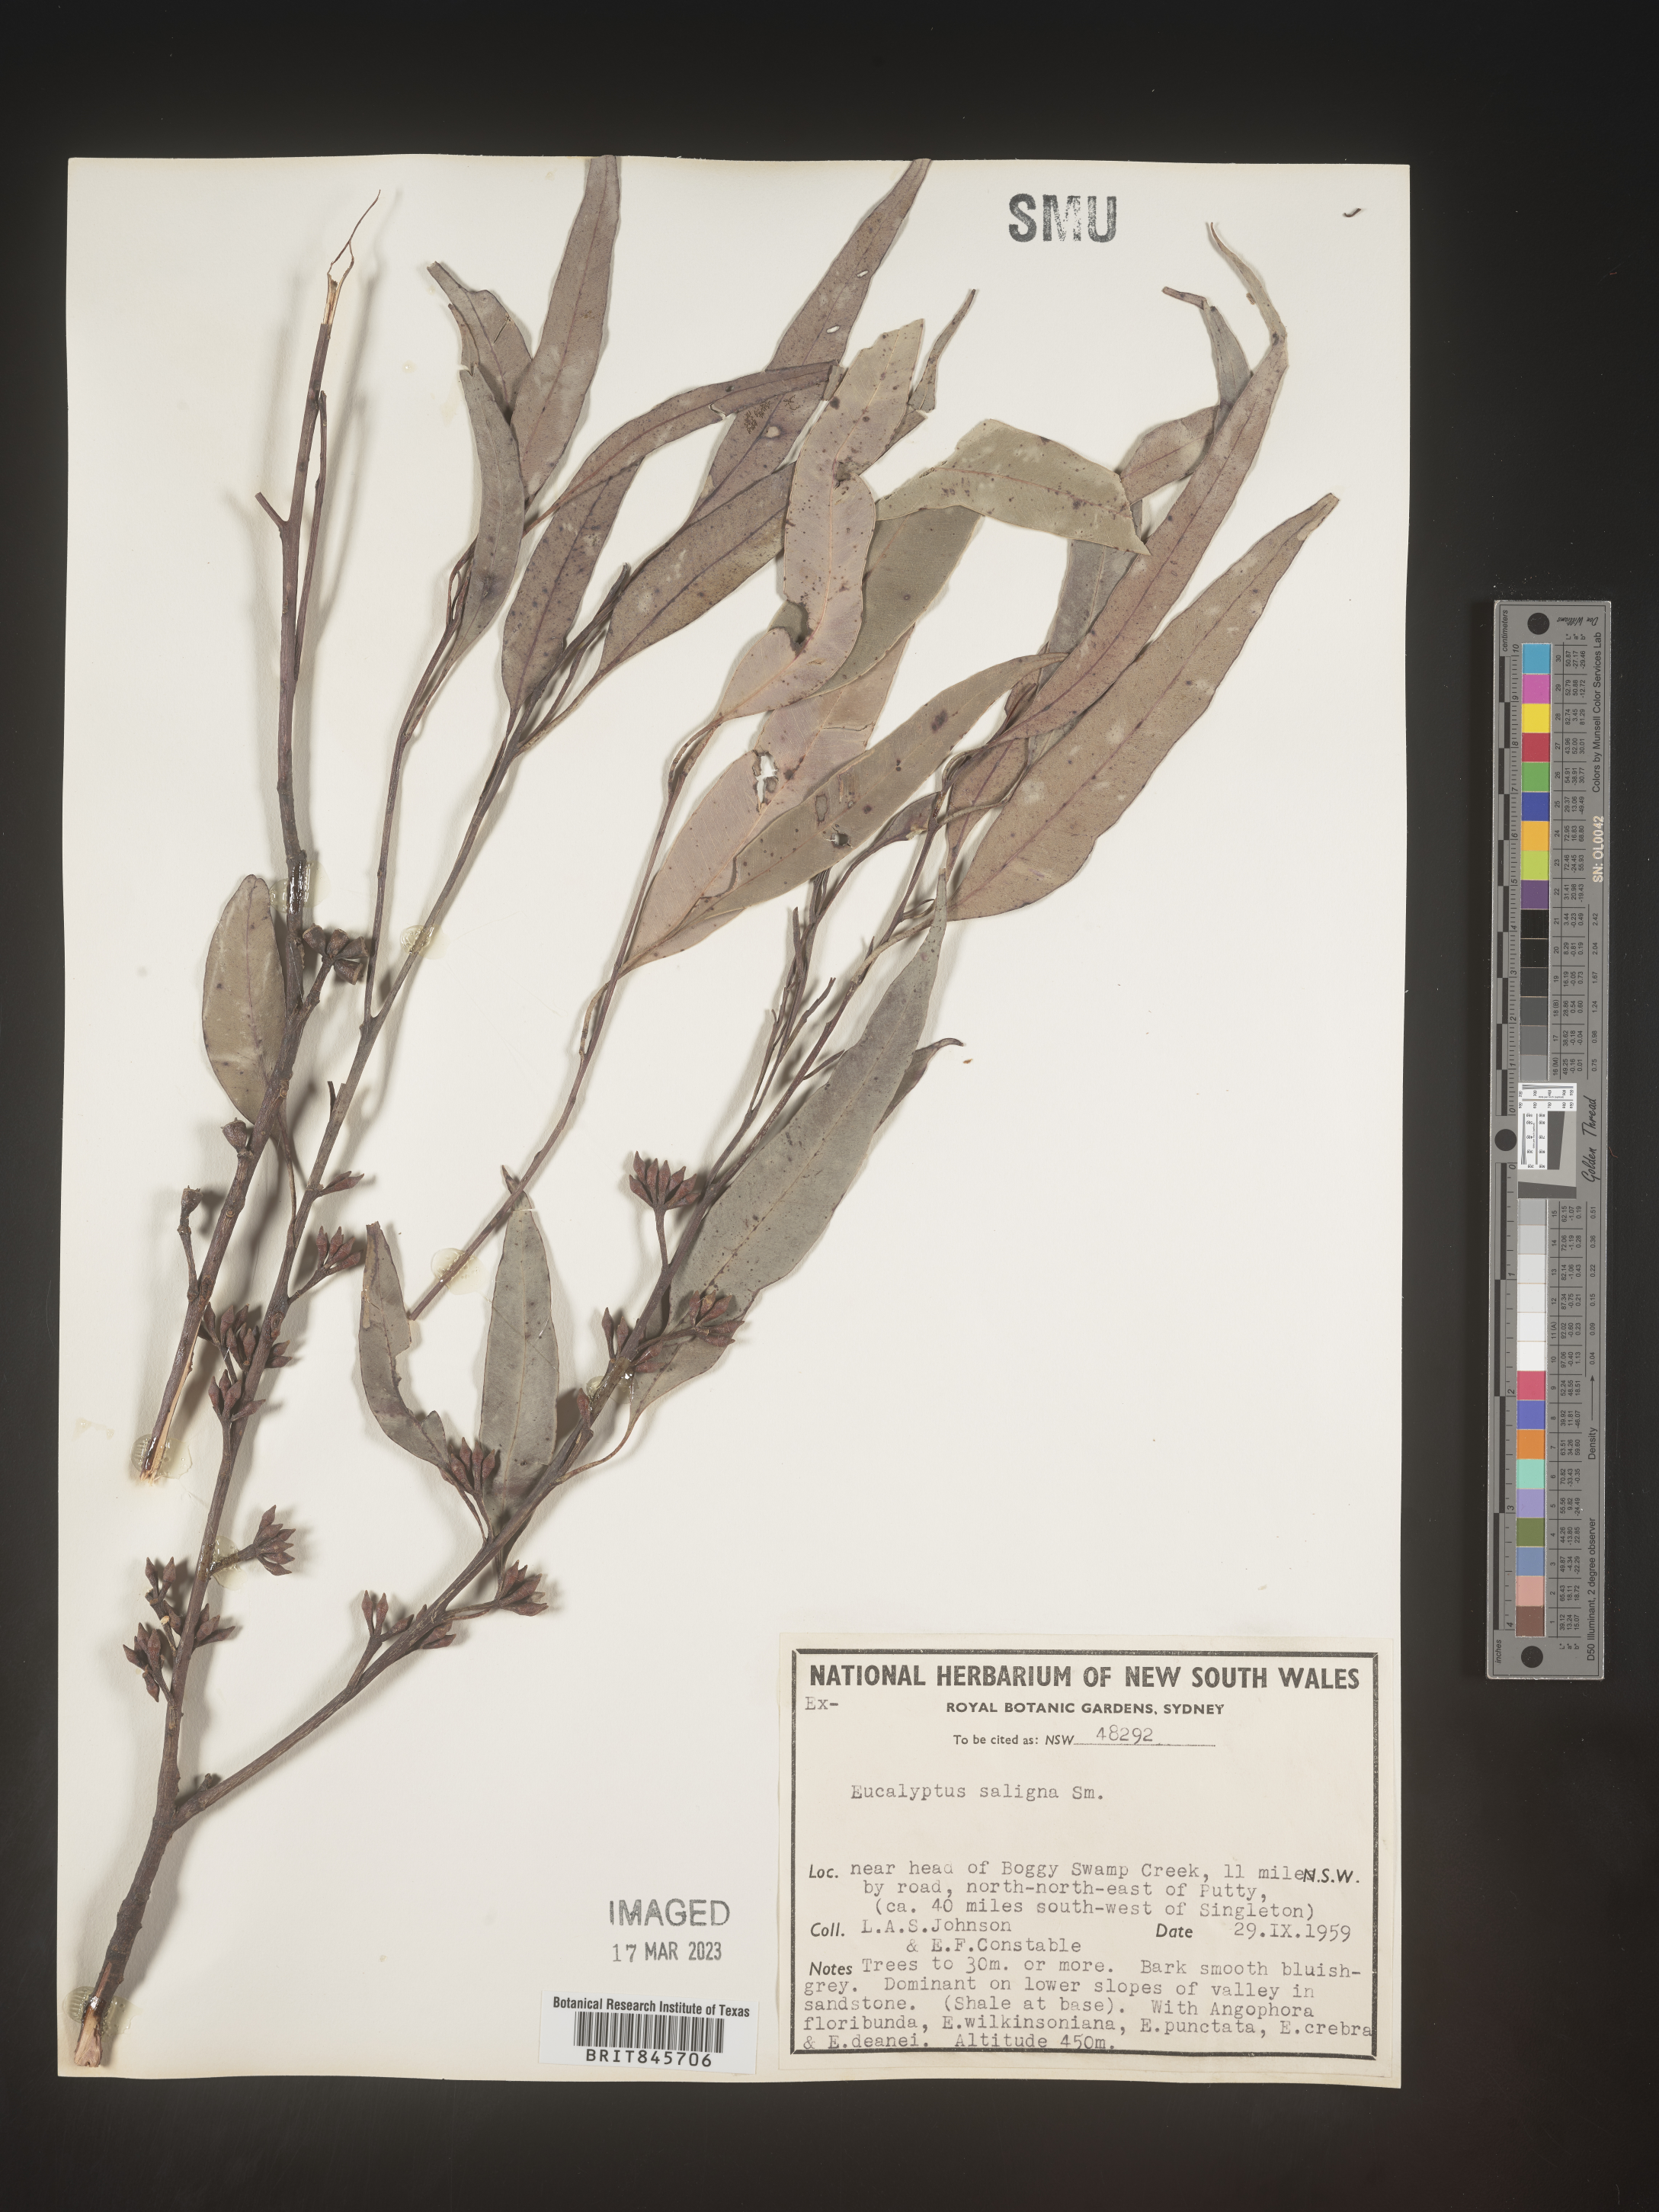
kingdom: Plantae
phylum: Tracheophyta
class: Magnoliopsida
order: Myrtales
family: Myrtaceae
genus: Eucalyptus
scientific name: Eucalyptus
